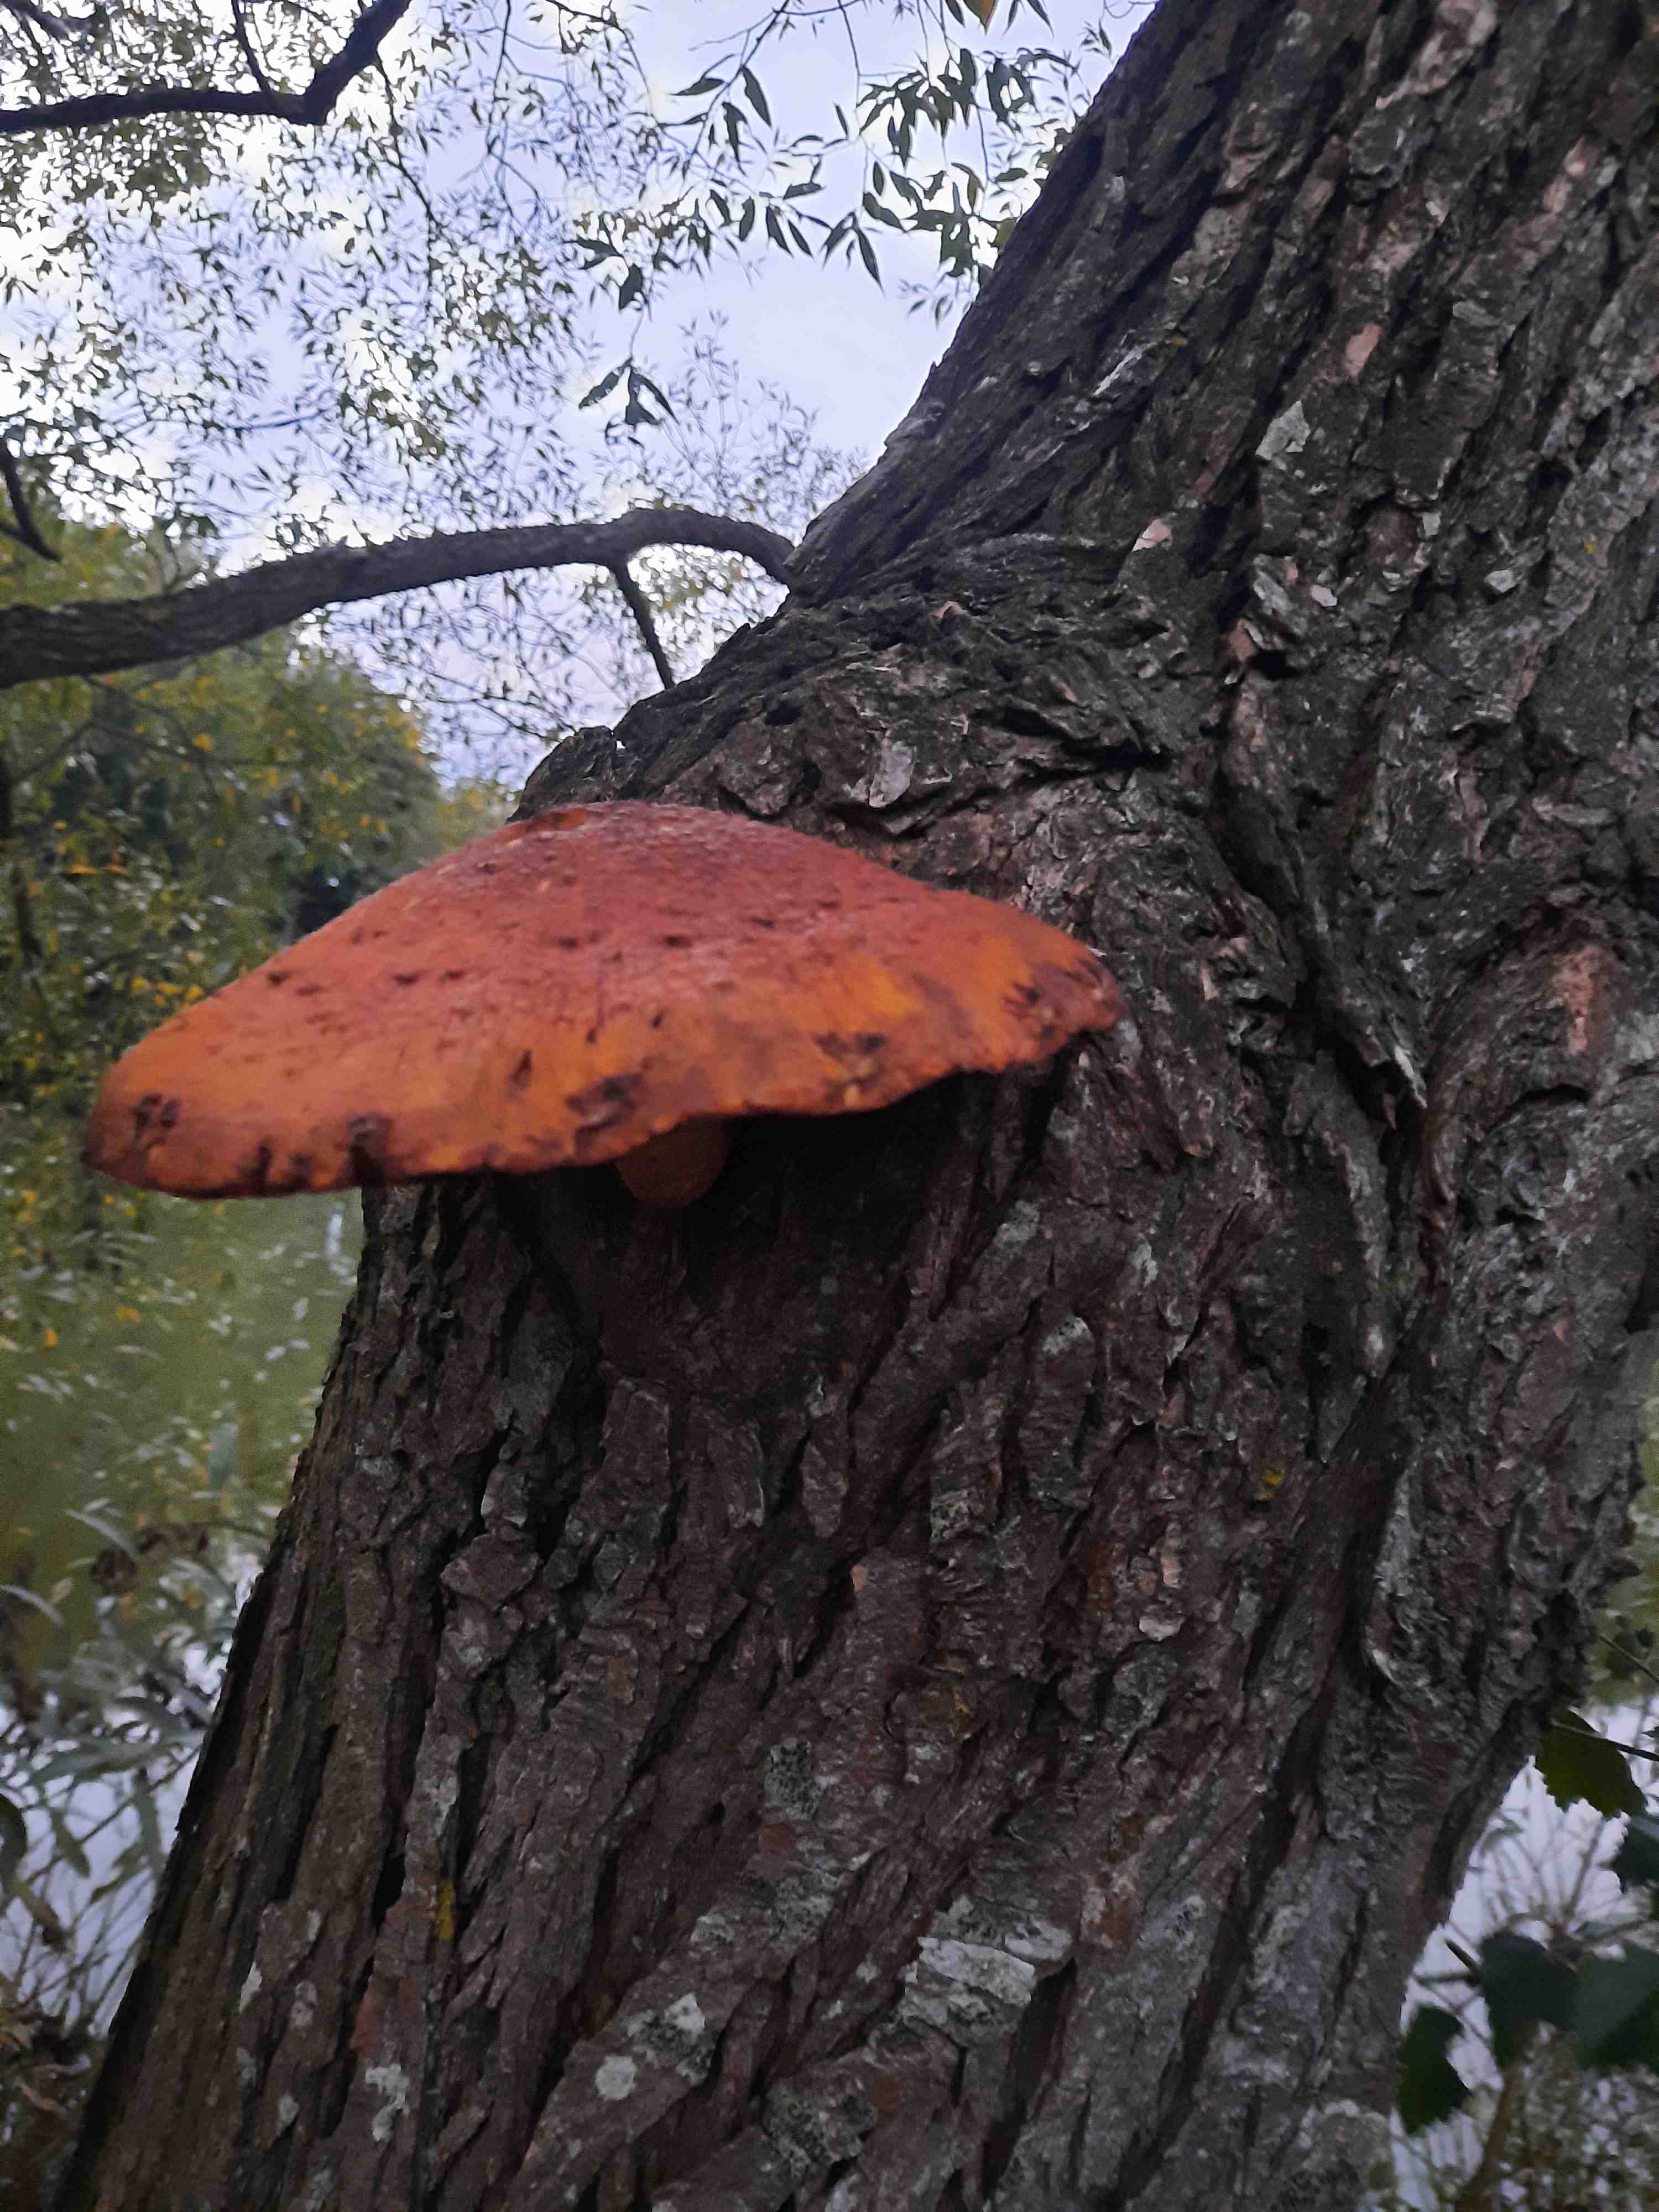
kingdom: Fungi
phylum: Basidiomycota
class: Agaricomycetes
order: Agaricales
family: Strophariaceae
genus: Pholiota
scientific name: Pholiota
